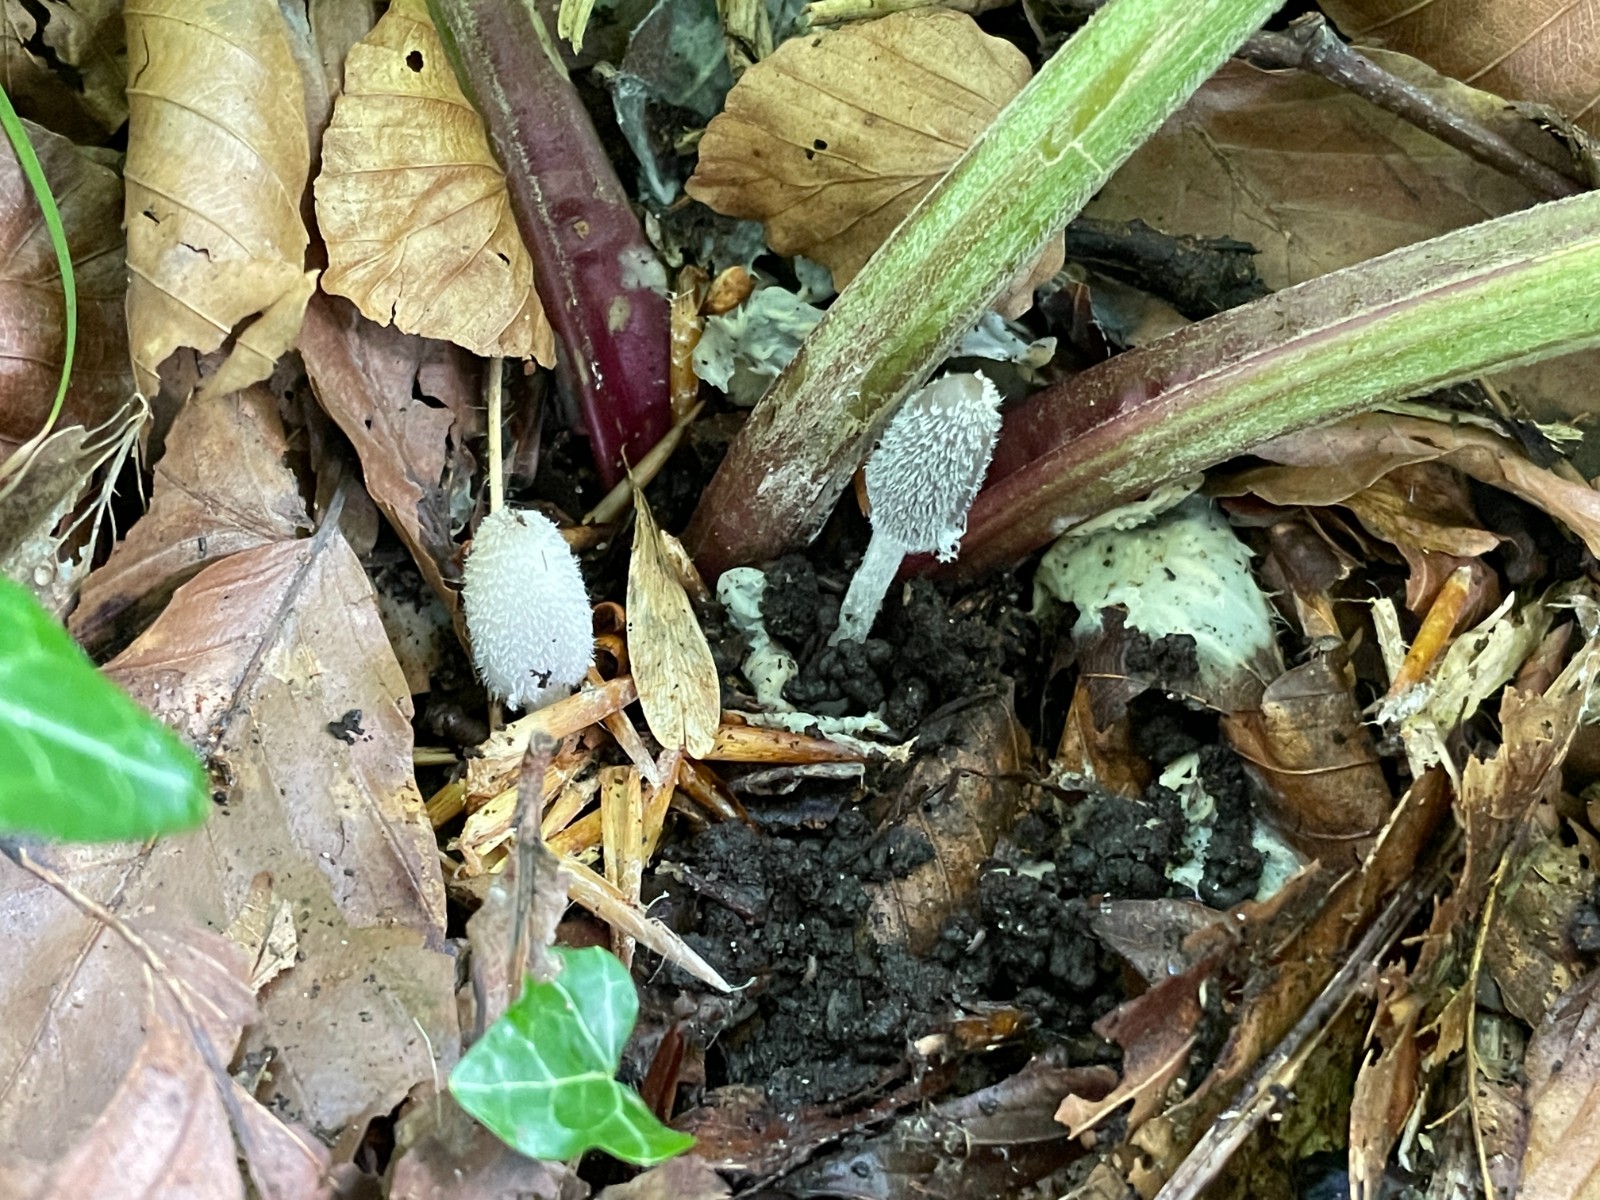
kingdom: Fungi
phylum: Basidiomycota
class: Agaricomycetes
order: Agaricales
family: Psathyrellaceae
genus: Coprinopsis
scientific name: Coprinopsis lagopus
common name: dunstokket blækhat
